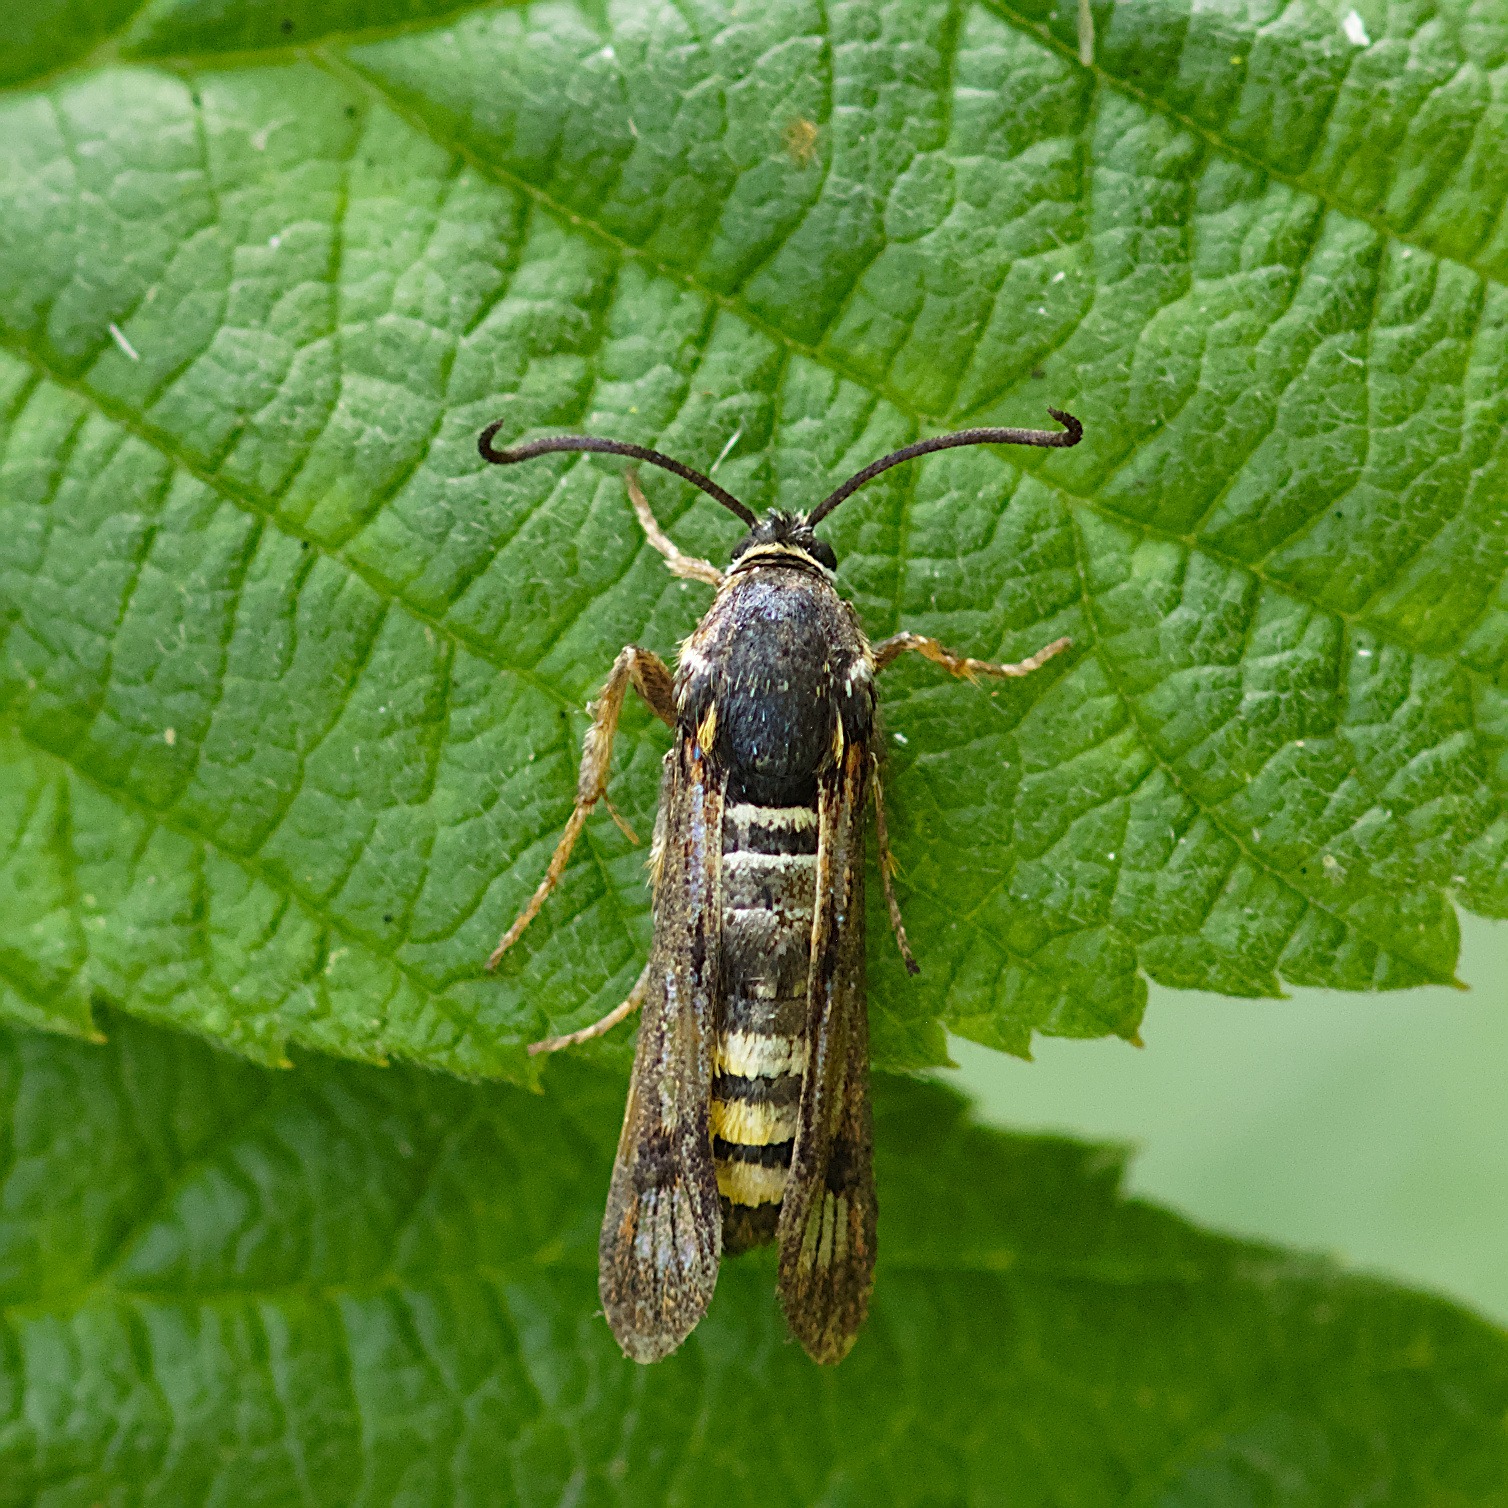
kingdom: Animalia
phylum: Arthropoda
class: Insecta
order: Lepidoptera
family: Sesiidae
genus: Pennisetia
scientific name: Pennisetia hylaeiformis
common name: Hindbærglassværmer
